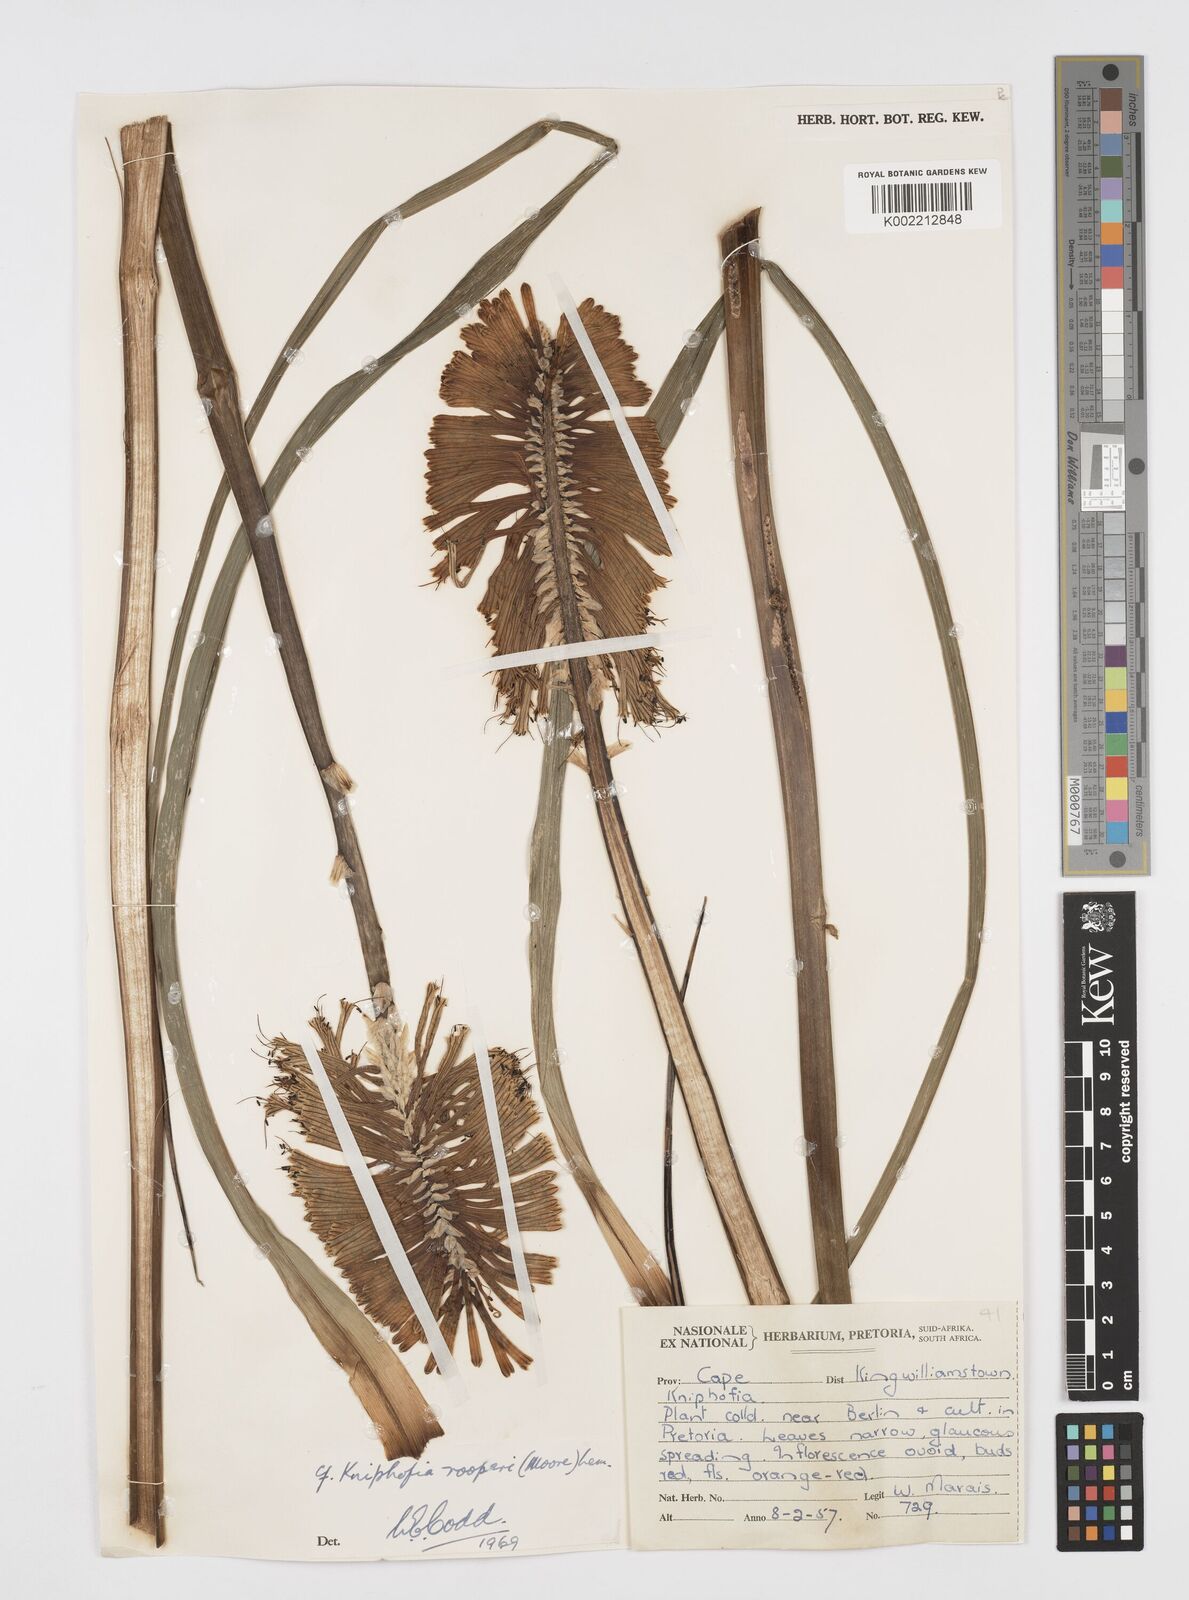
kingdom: Plantae
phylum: Tracheophyta
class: Liliopsida
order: Asparagales
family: Asphodelaceae
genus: Kniphofia
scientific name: Kniphofia rooperi
